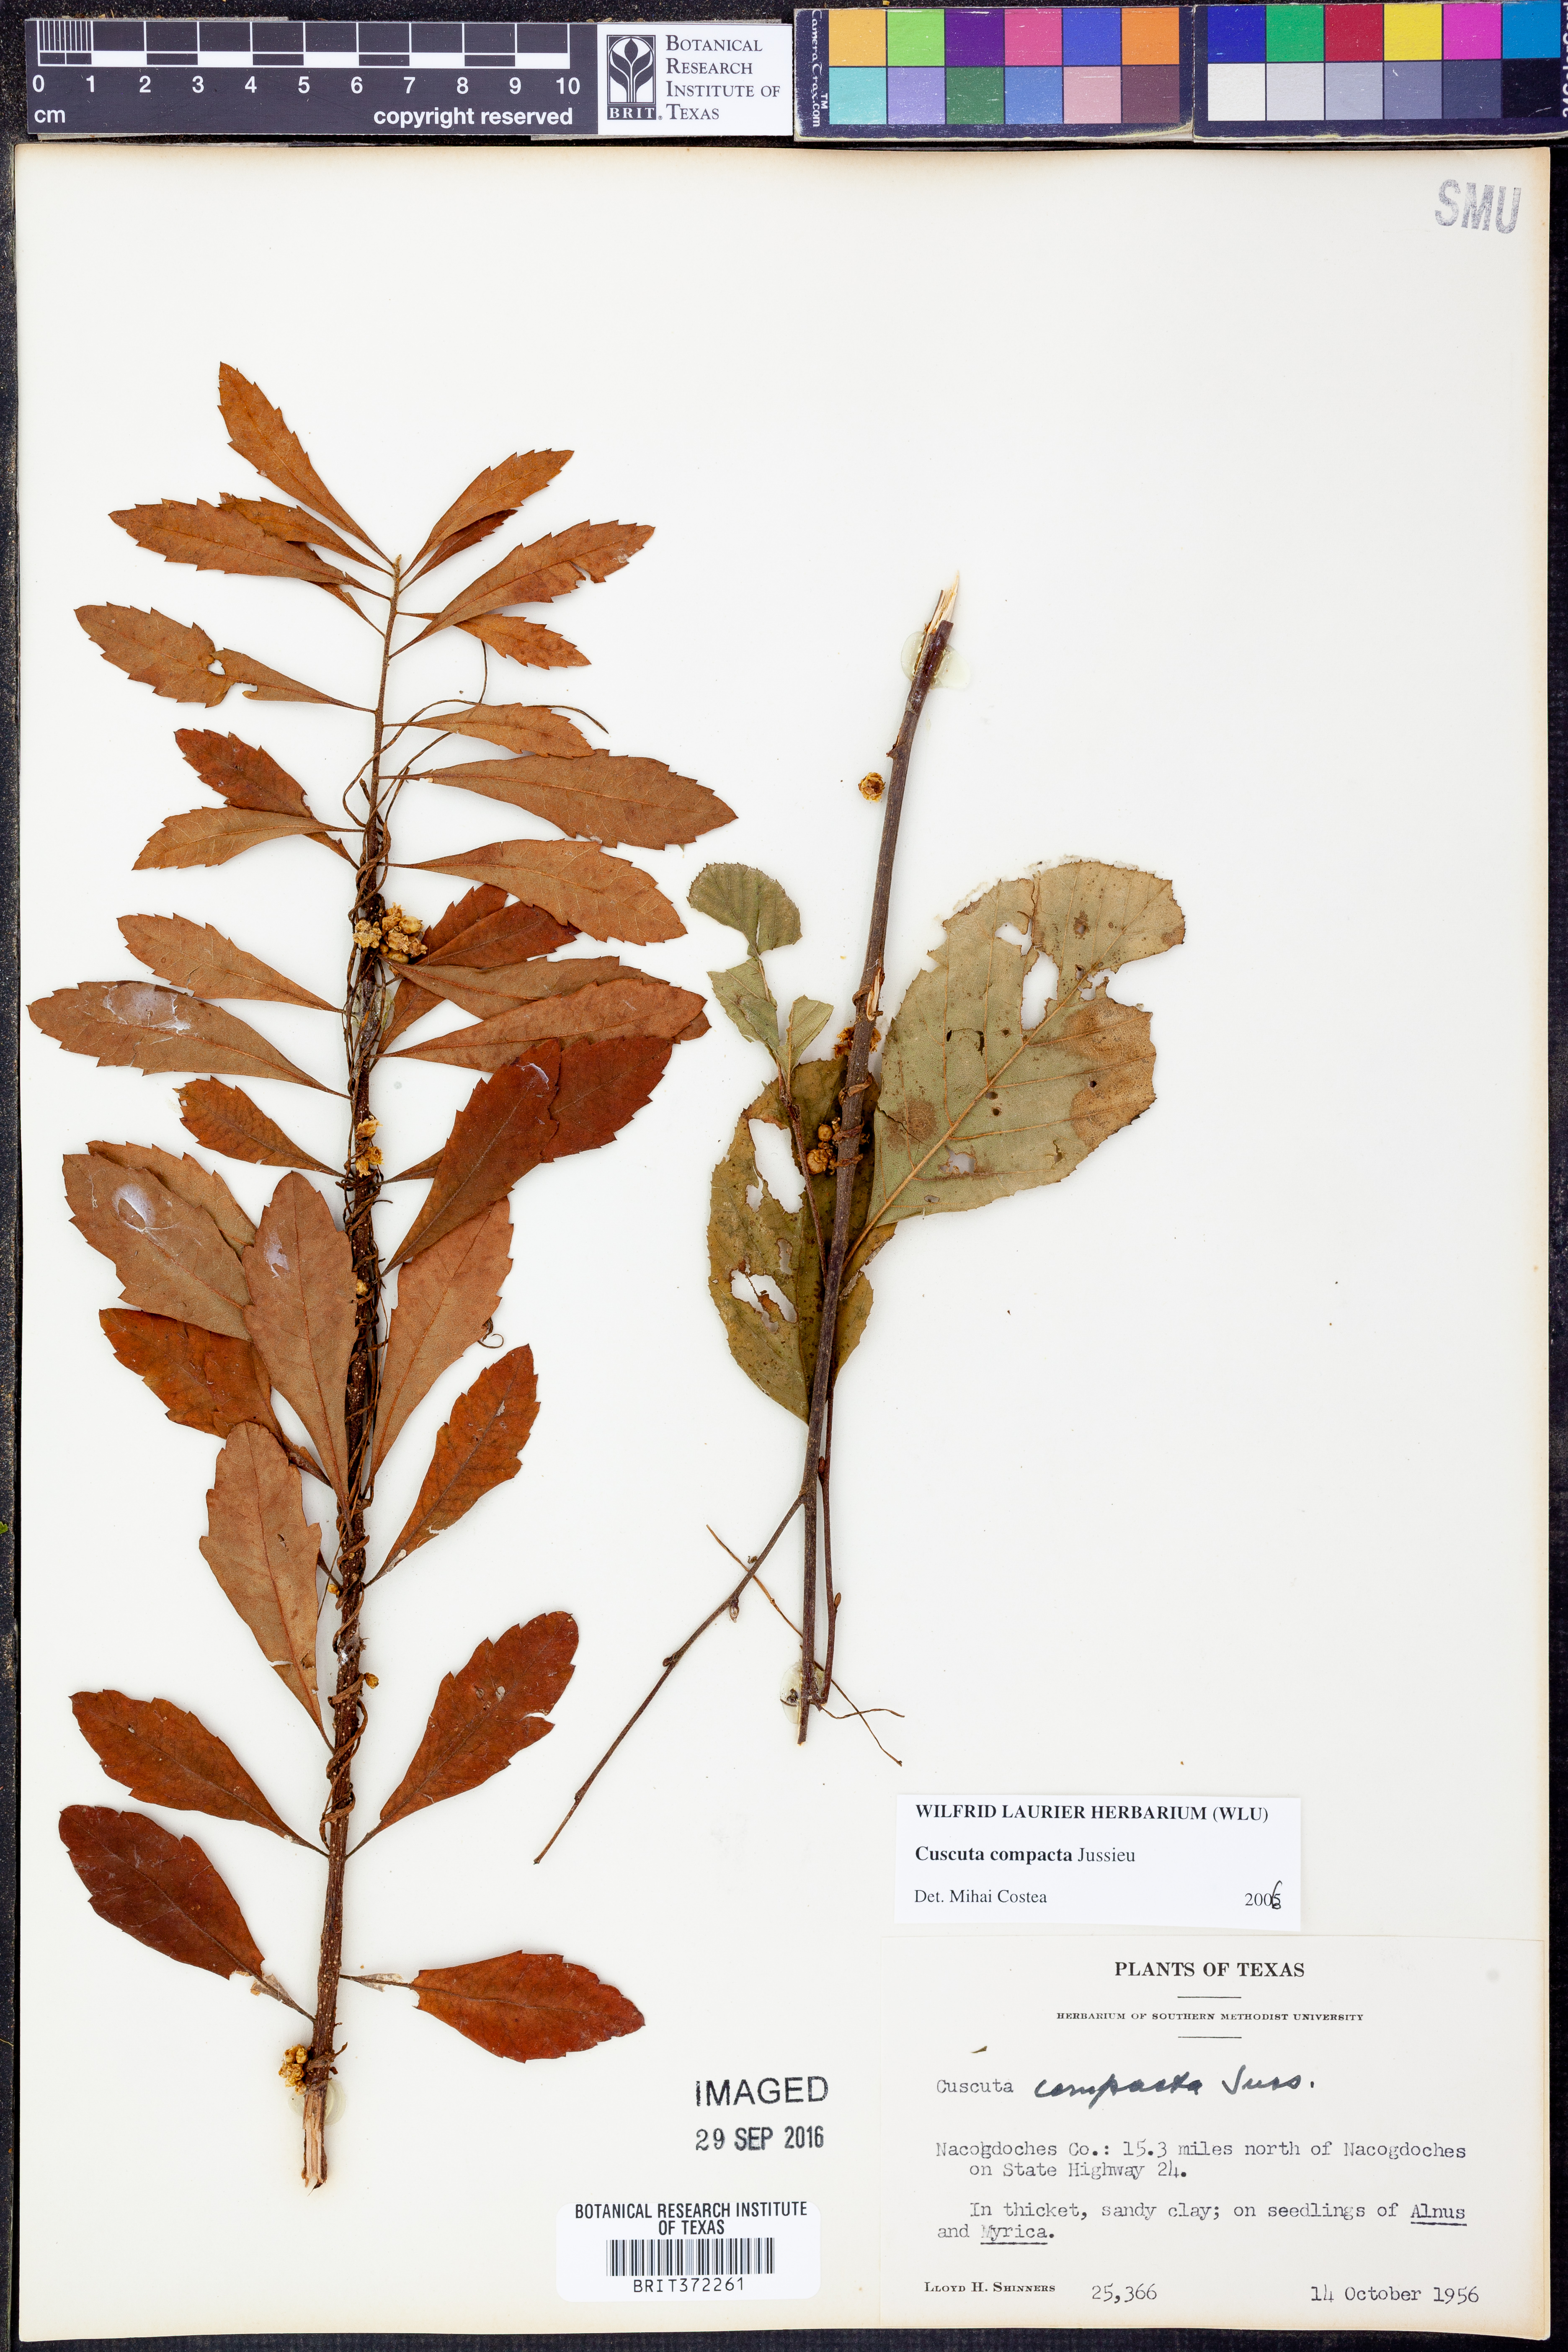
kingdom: Plantae
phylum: Tracheophyta
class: Magnoliopsida
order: Solanales
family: Convolvulaceae
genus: Cuscuta
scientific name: Cuscuta compacta
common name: Compact dodder
